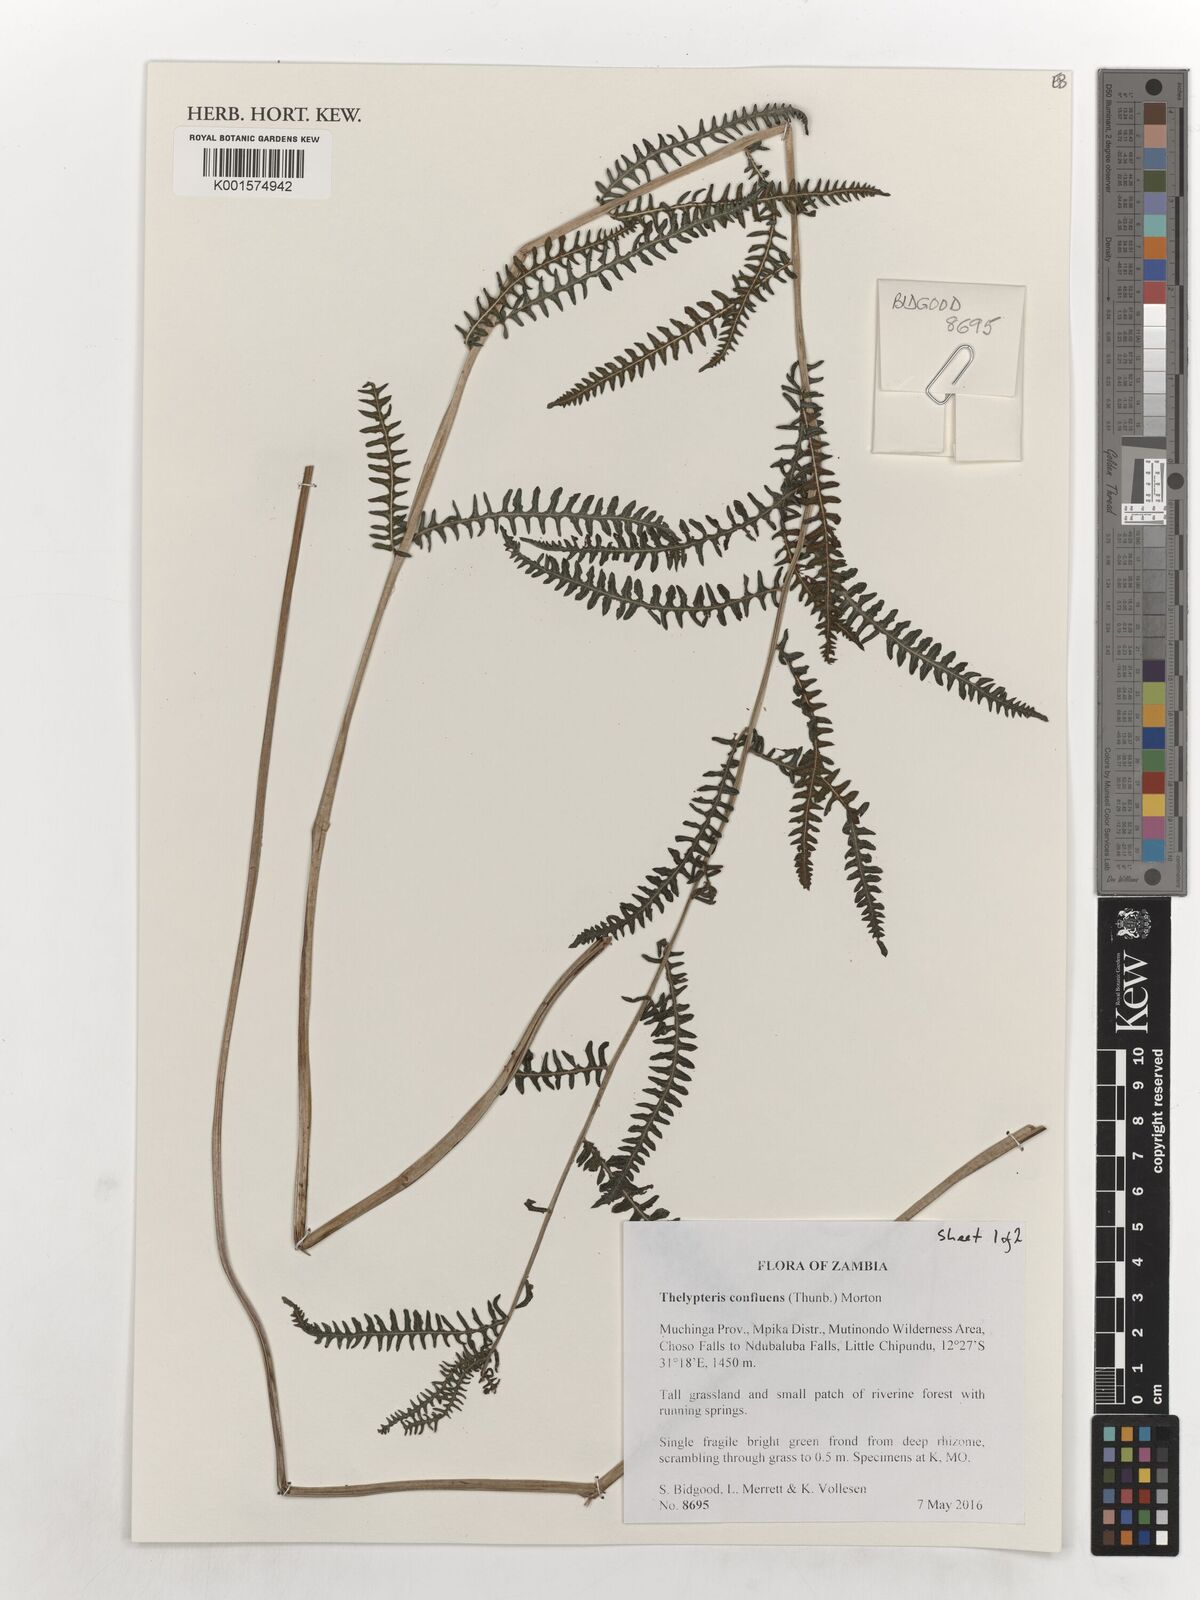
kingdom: Plantae
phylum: Tracheophyta
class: Polypodiopsida
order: Polypodiales
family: Thelypteridaceae
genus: Thelypteris
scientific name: Thelypteris confluens
